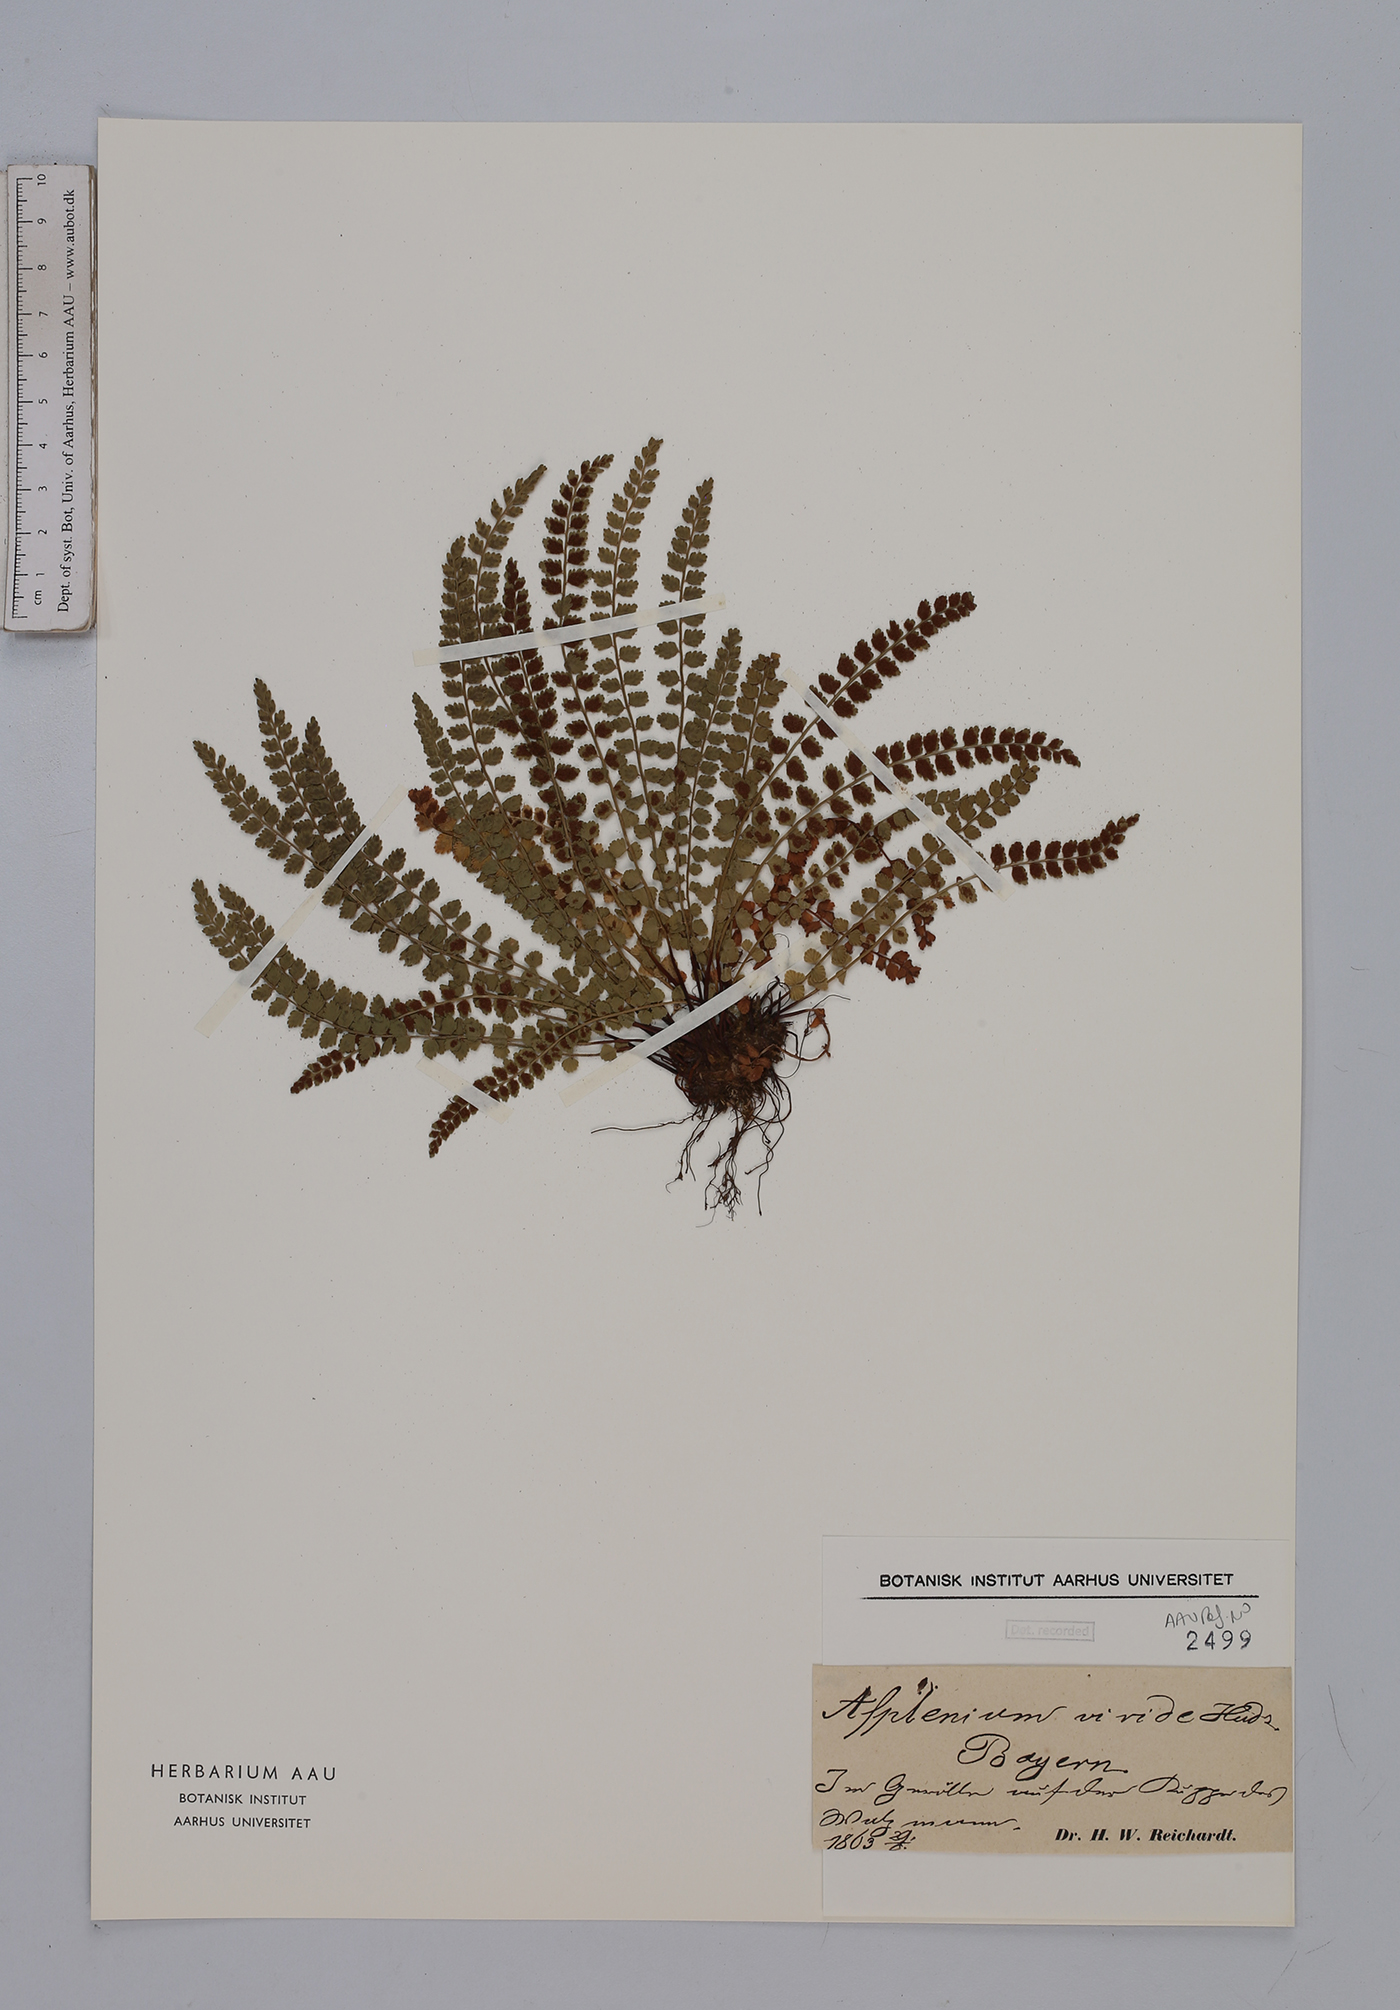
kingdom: Plantae
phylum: Tracheophyta
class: Polypodiopsida
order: Polypodiales
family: Aspleniaceae
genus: Asplenium
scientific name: Asplenium viride
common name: Green spleenwort
